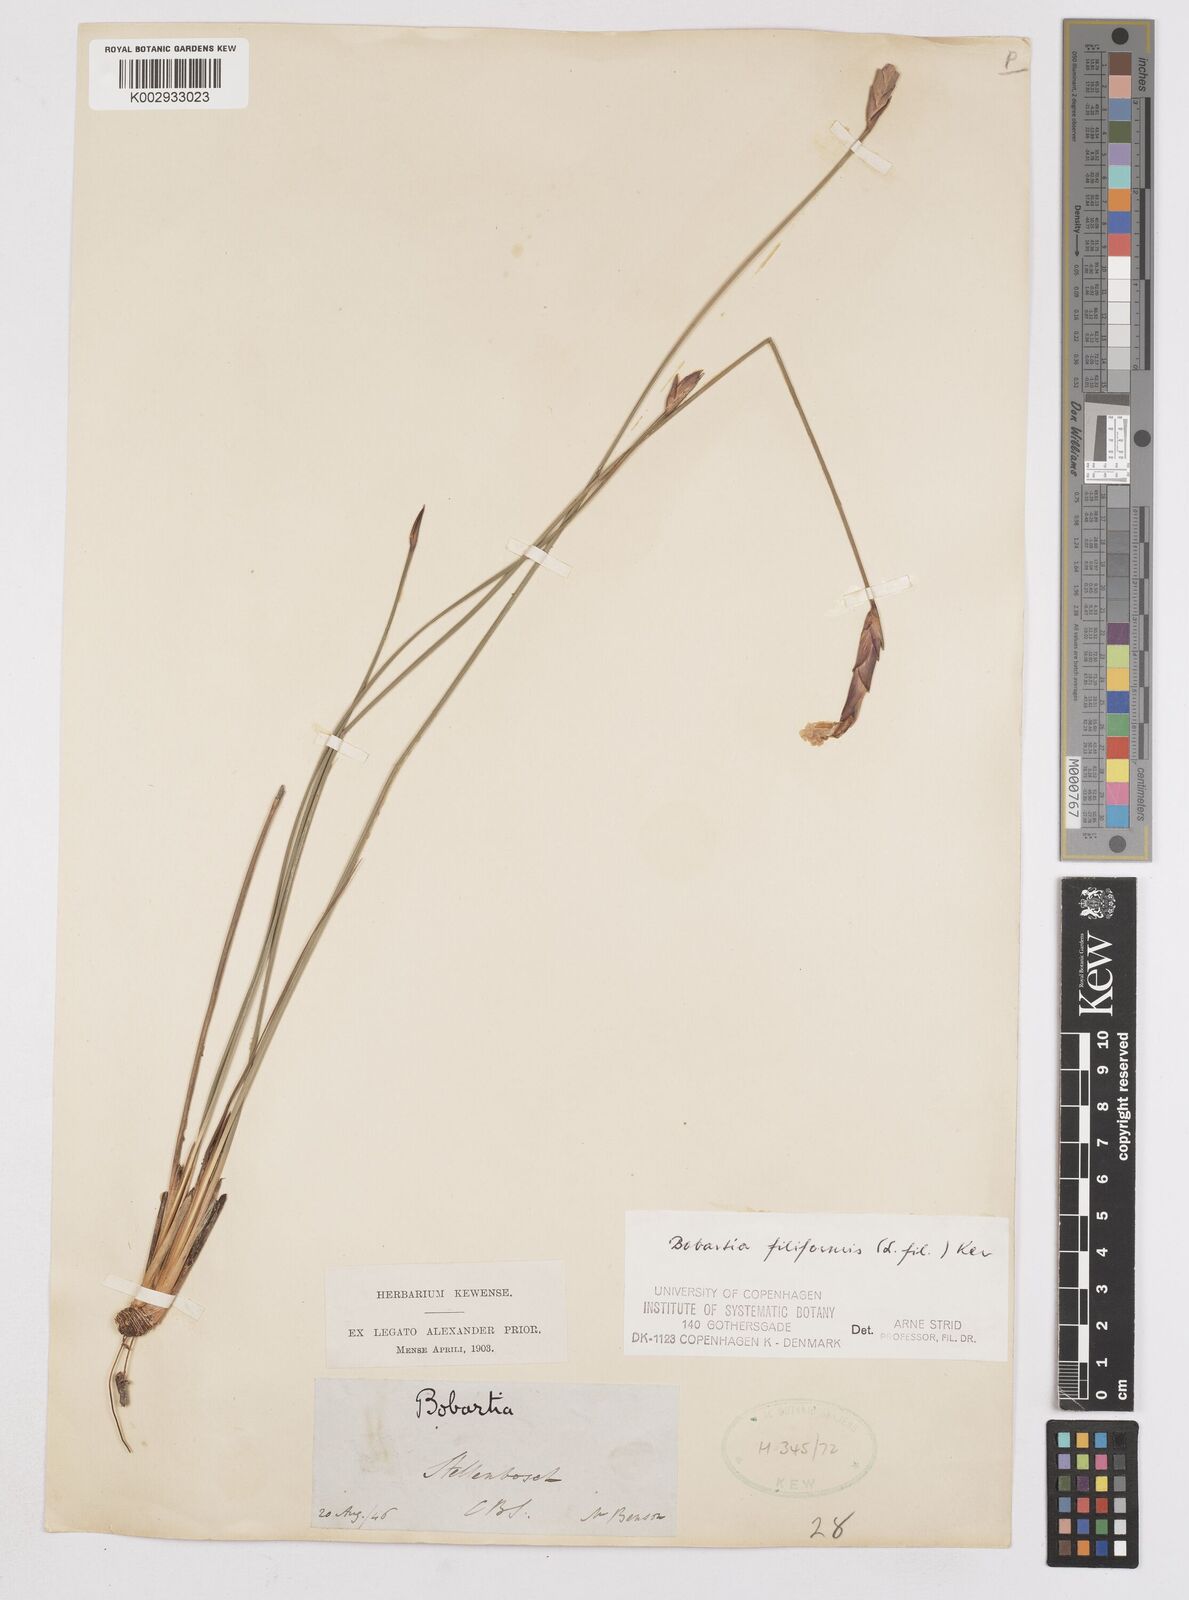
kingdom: Plantae
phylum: Tracheophyta
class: Liliopsida
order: Asparagales
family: Iridaceae
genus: Bobartia
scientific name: Bobartia filiformis
